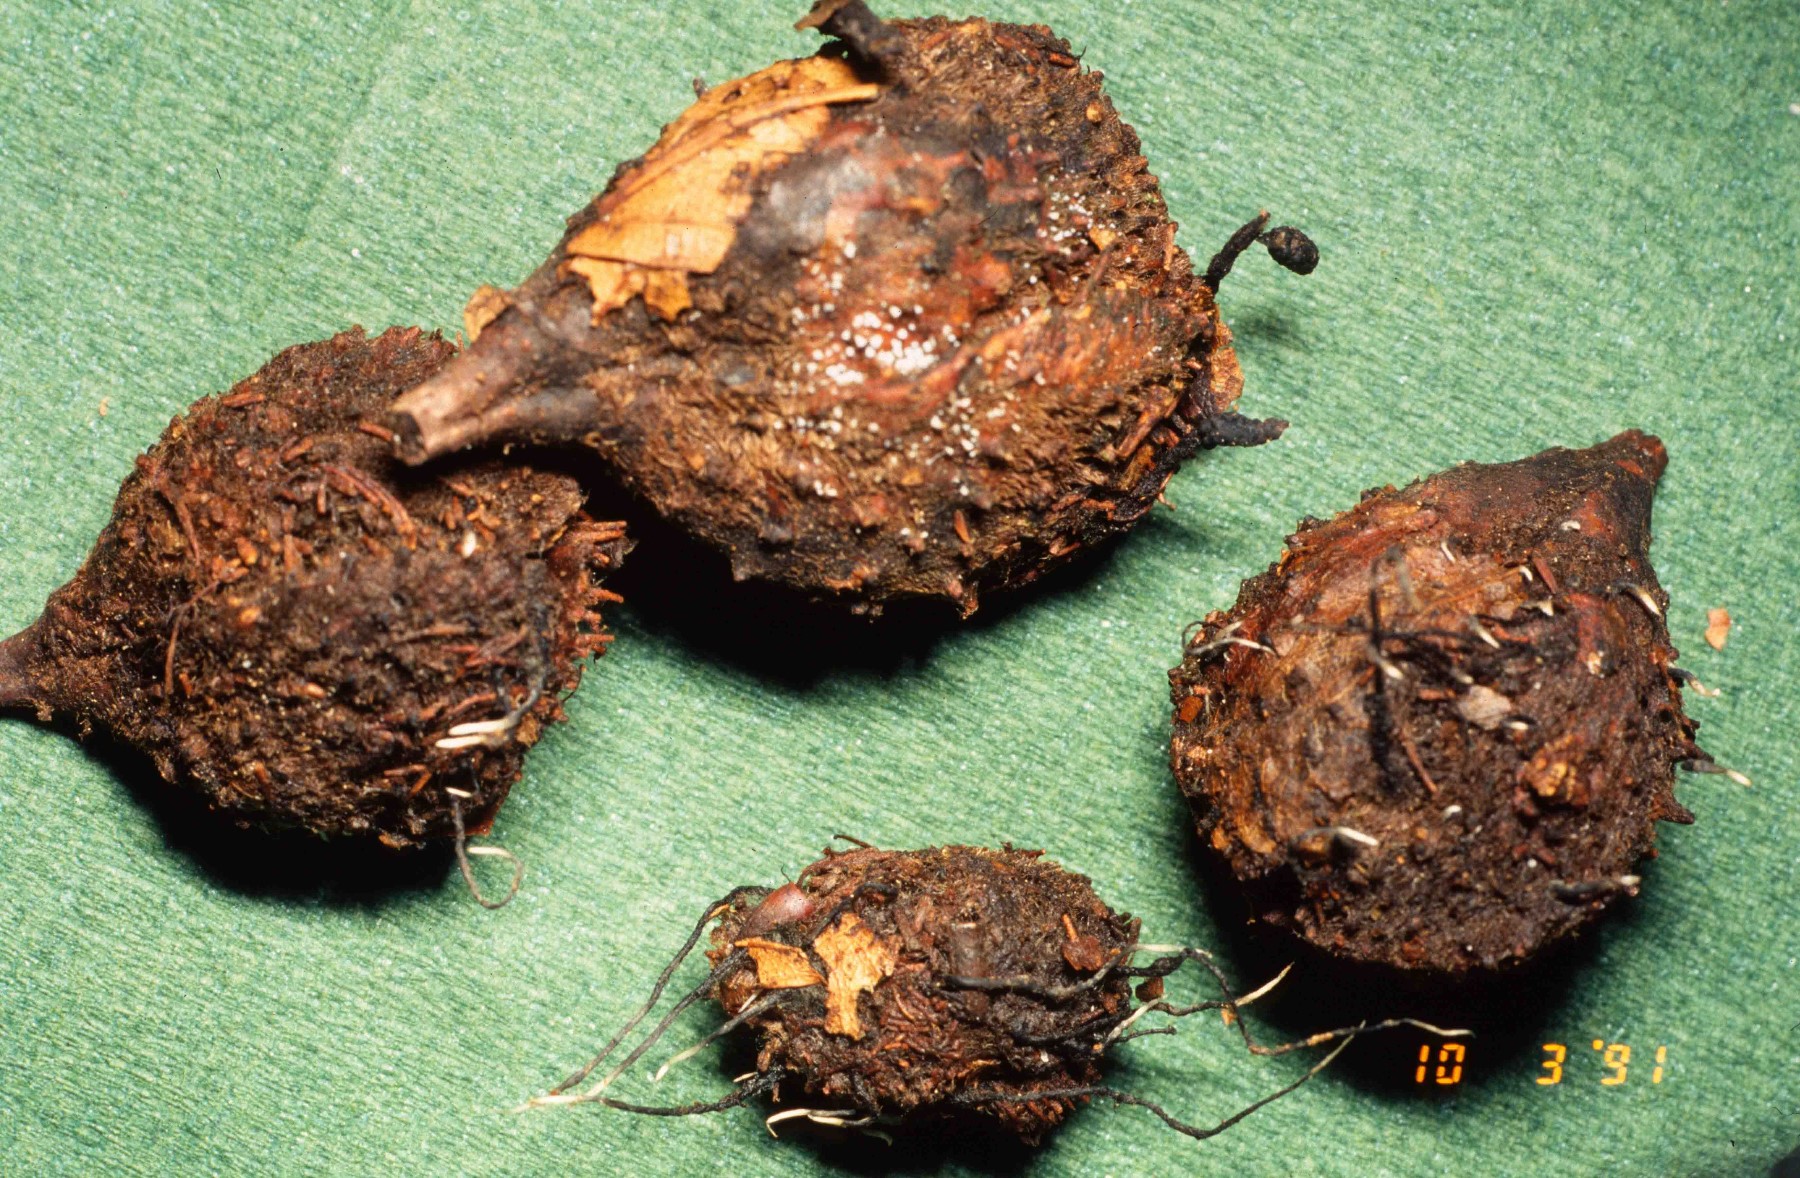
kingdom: Fungi
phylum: Ascomycota
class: Sordariomycetes
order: Xylariales
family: Xylariaceae
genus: Xylaria
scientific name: Xylaria carpophila
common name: bogskål-stødsvamp
